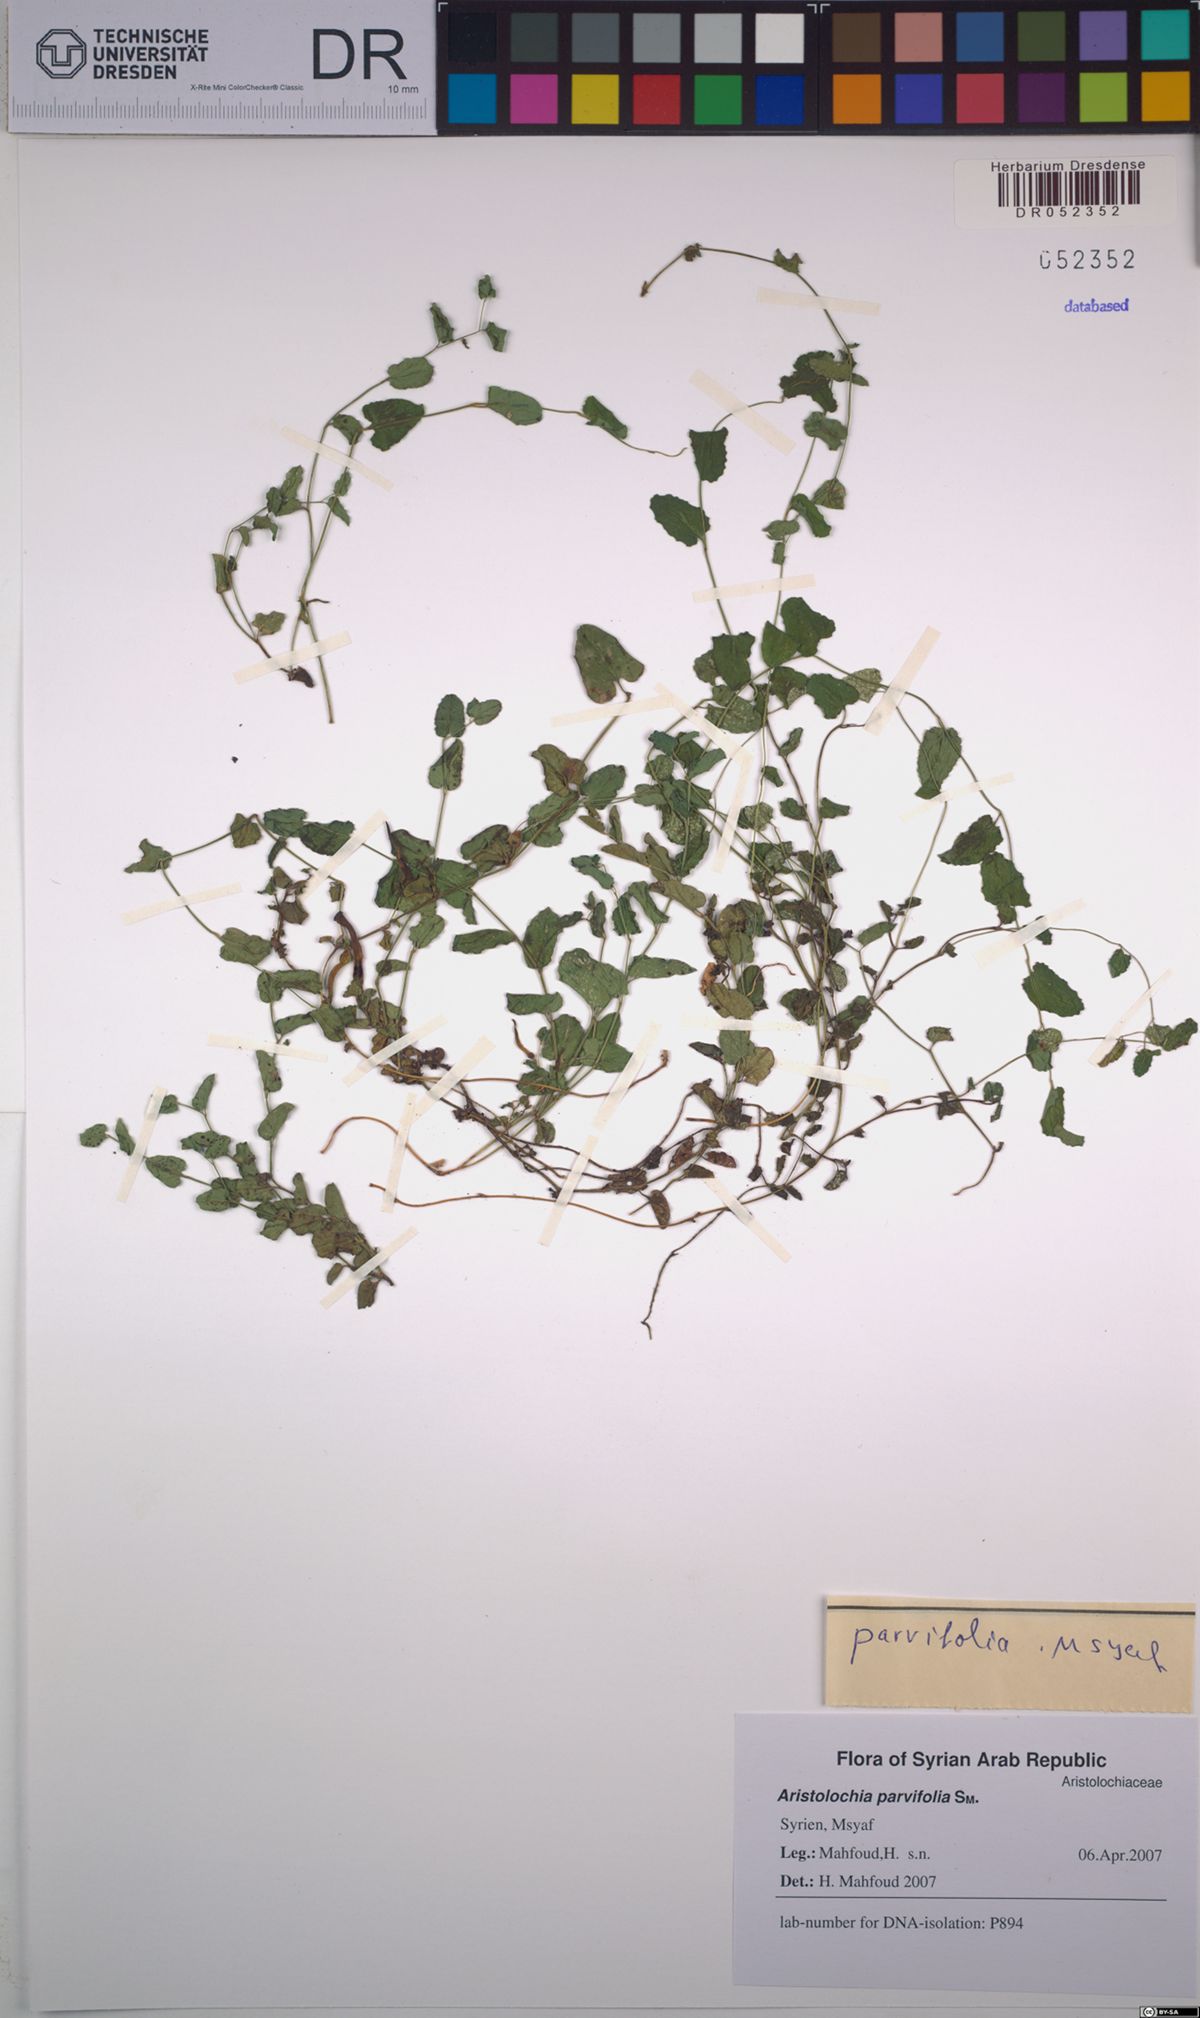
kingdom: Plantae
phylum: Tracheophyta
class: Magnoliopsida
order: Piperales
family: Aristolochiaceae
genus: Aristolochia
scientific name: Aristolochia parvifolia
